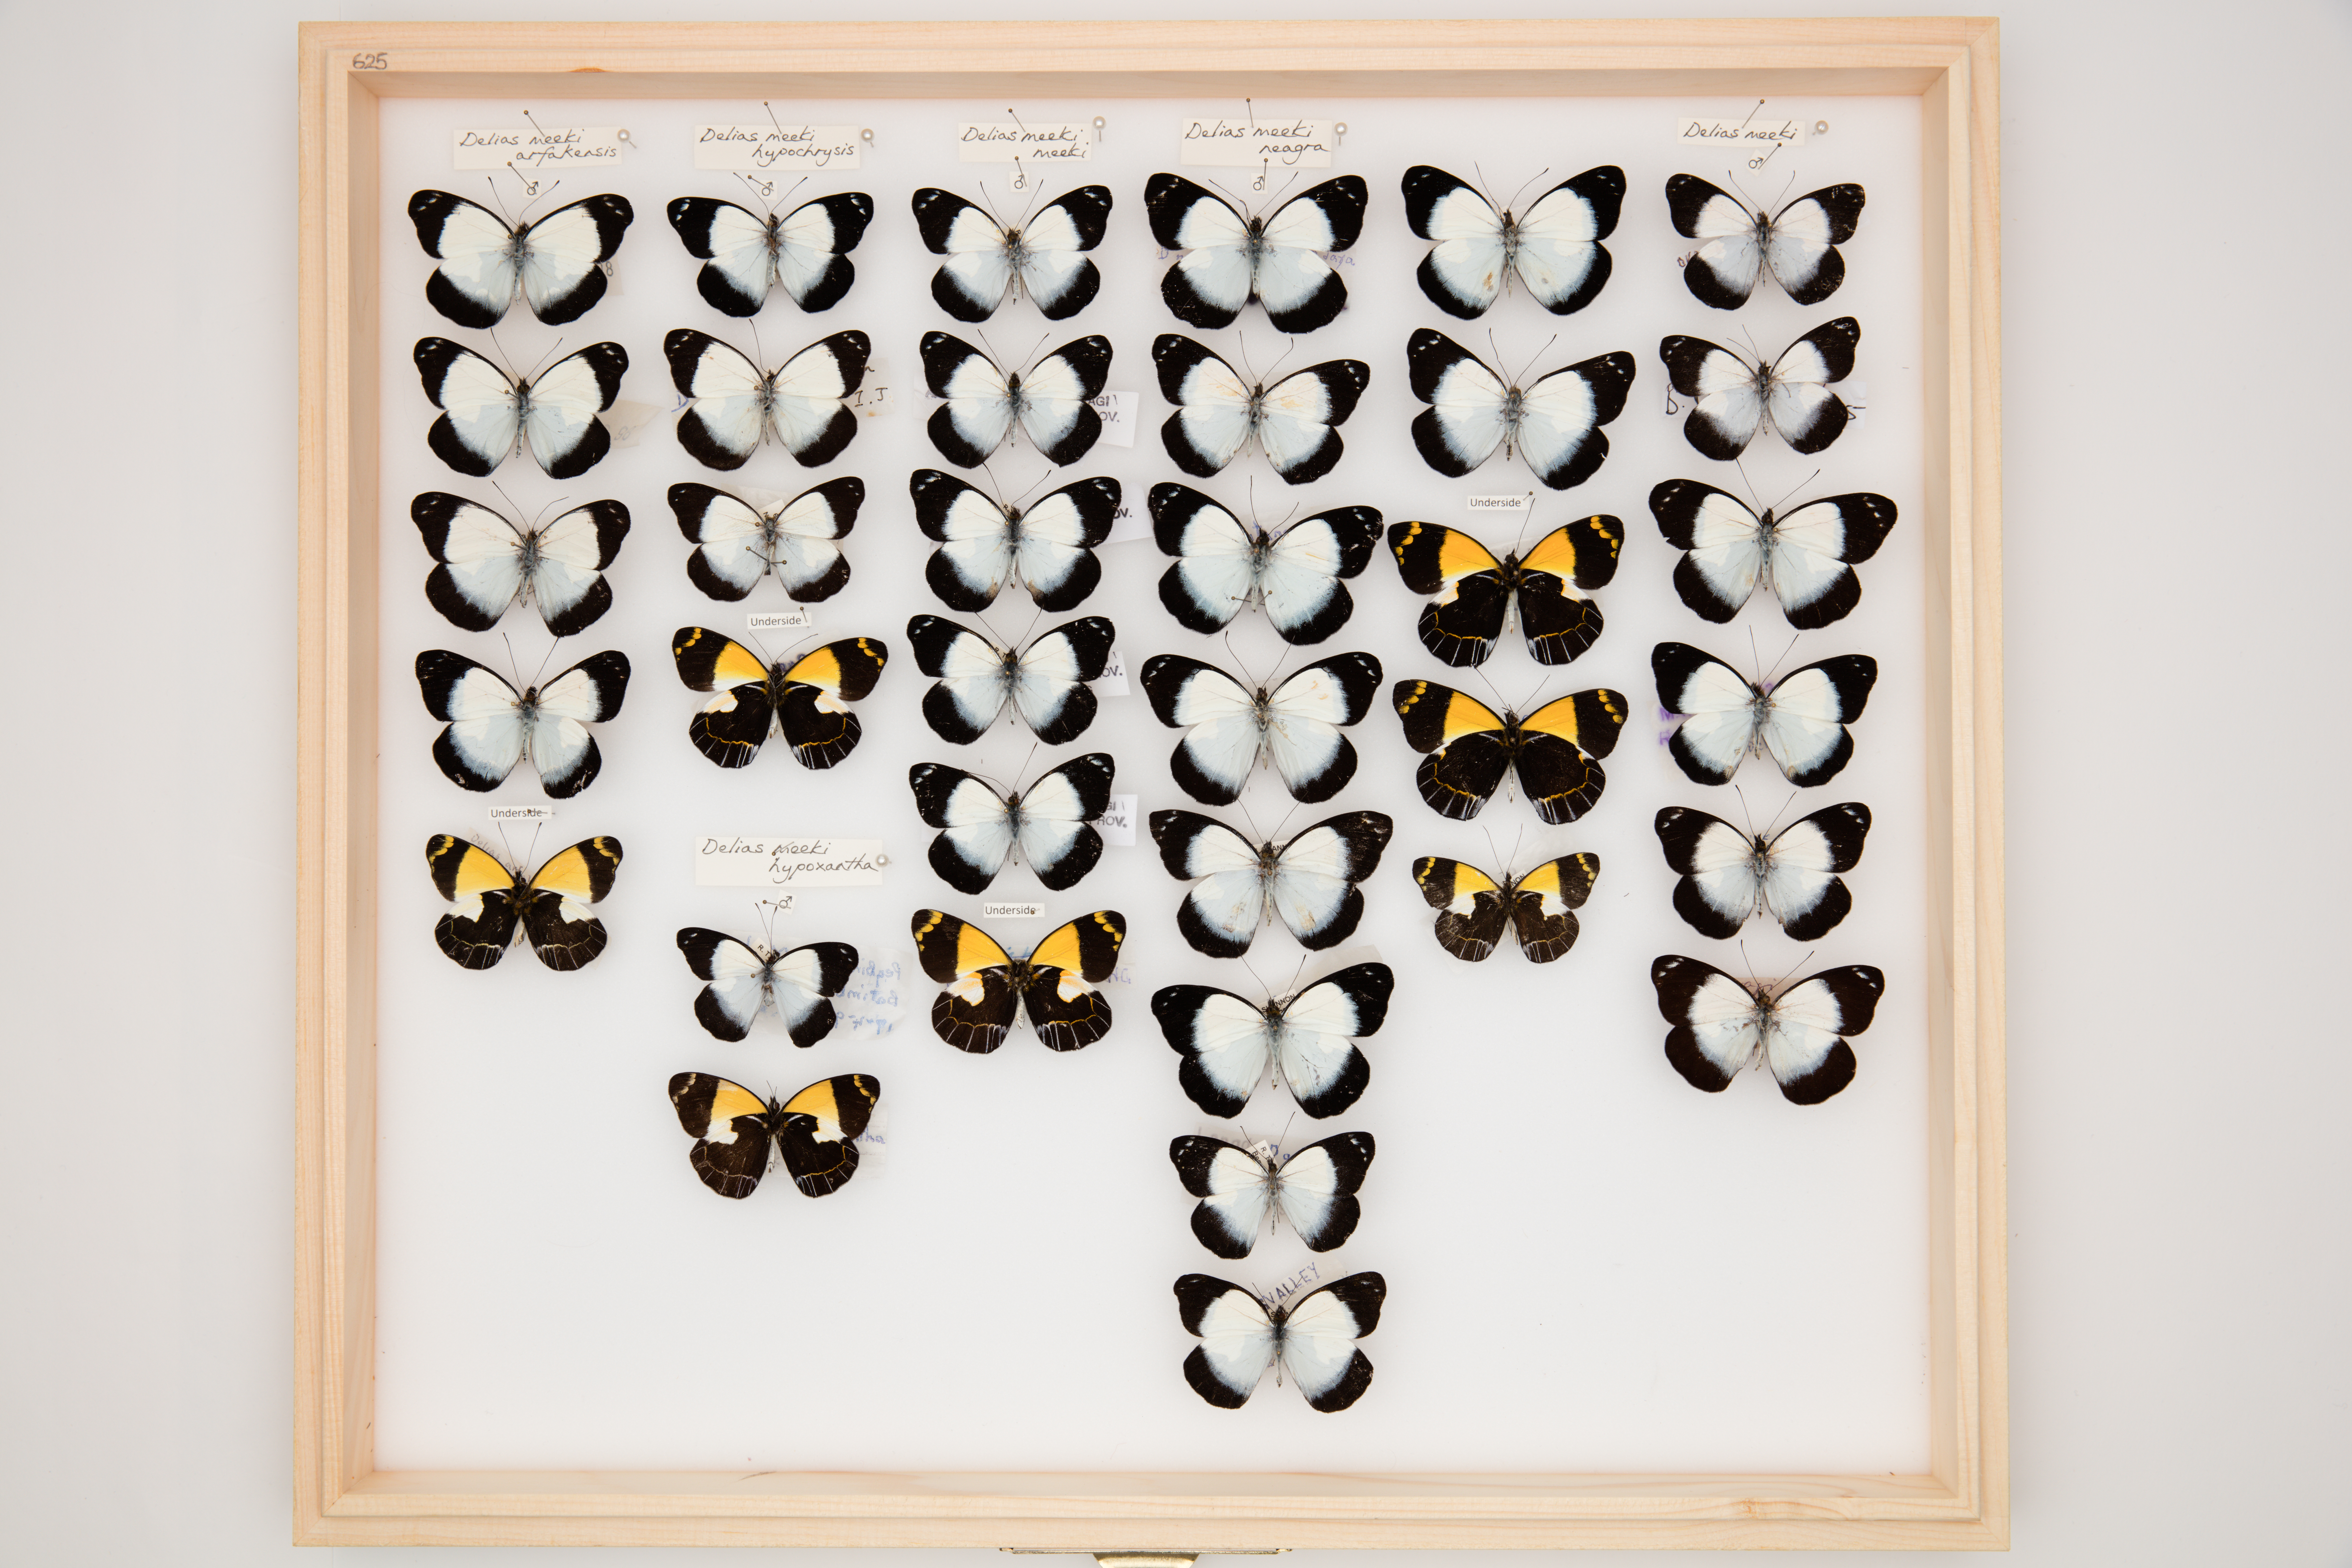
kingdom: Animalia
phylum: Arthropoda
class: Insecta
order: Lepidoptera
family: Pieridae
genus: Delias
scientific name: Delias meeki
